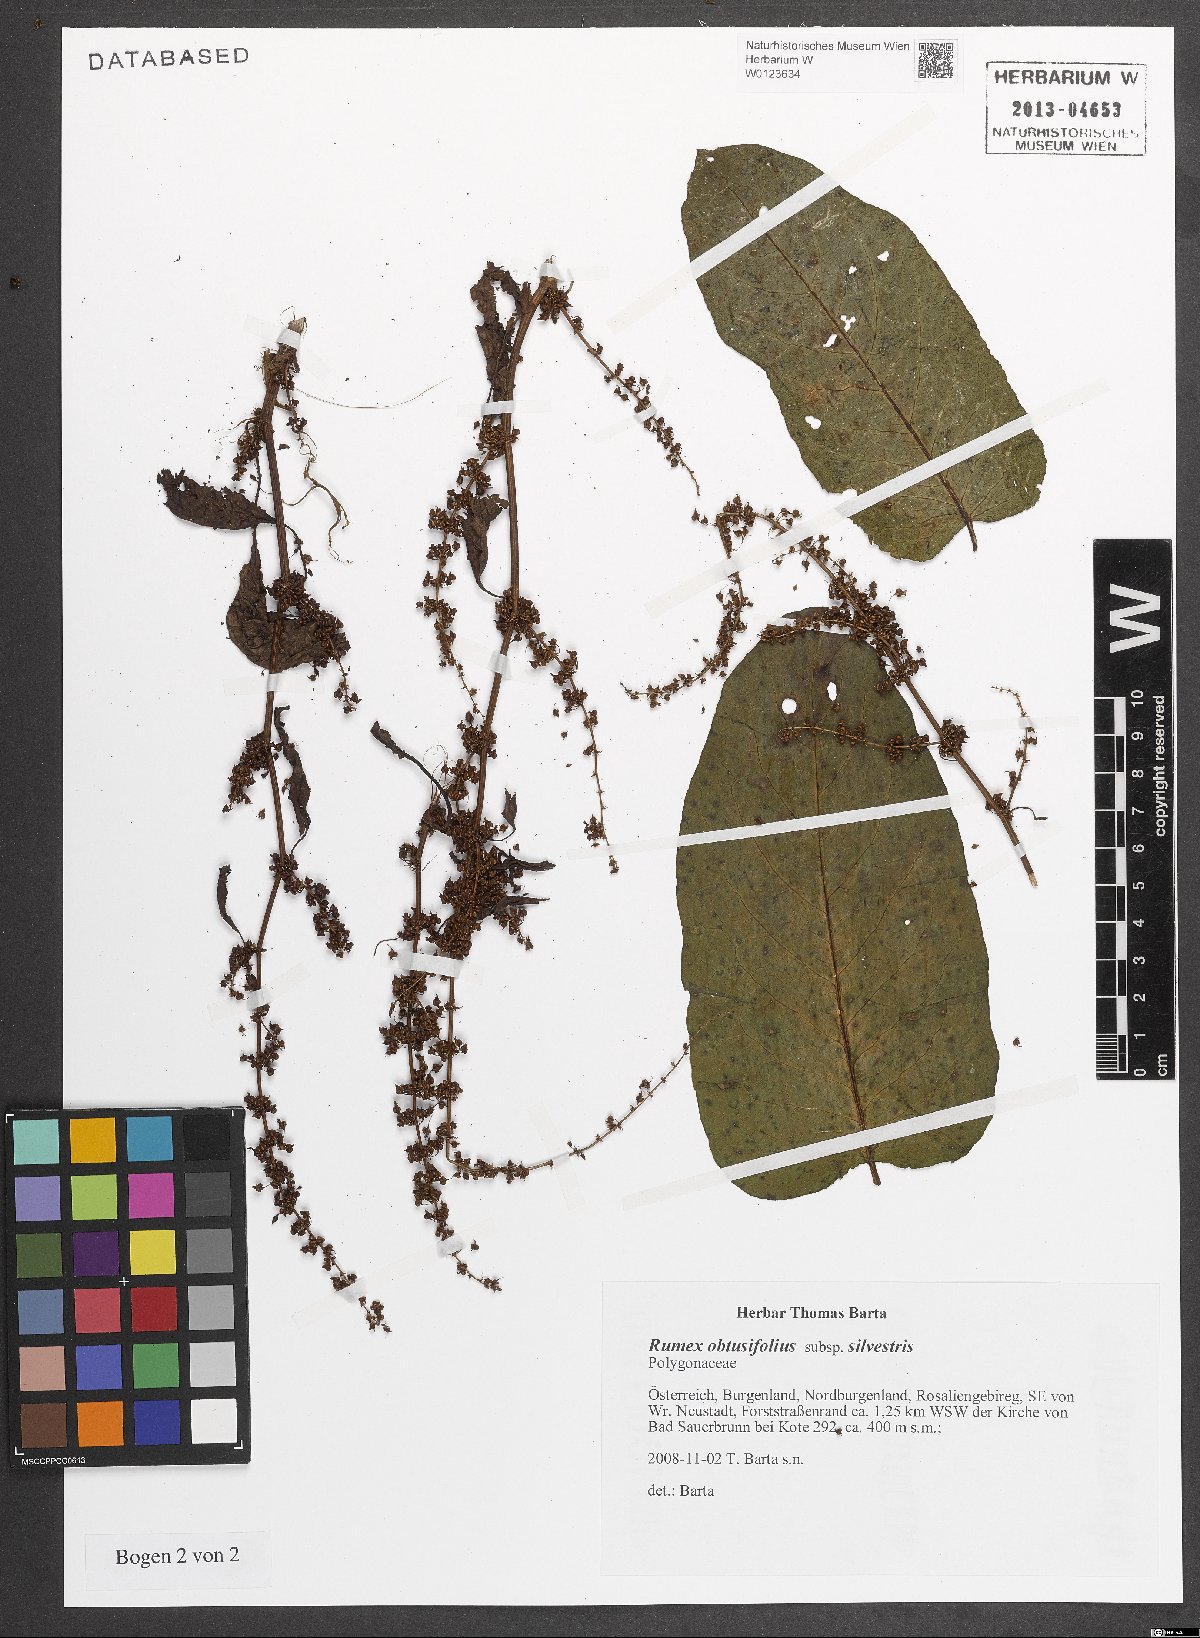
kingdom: Plantae
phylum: Tracheophyta
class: Magnoliopsida
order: Caryophyllales
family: Polygonaceae
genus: Rumex
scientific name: Rumex obtusifolius
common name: Bitter dock
